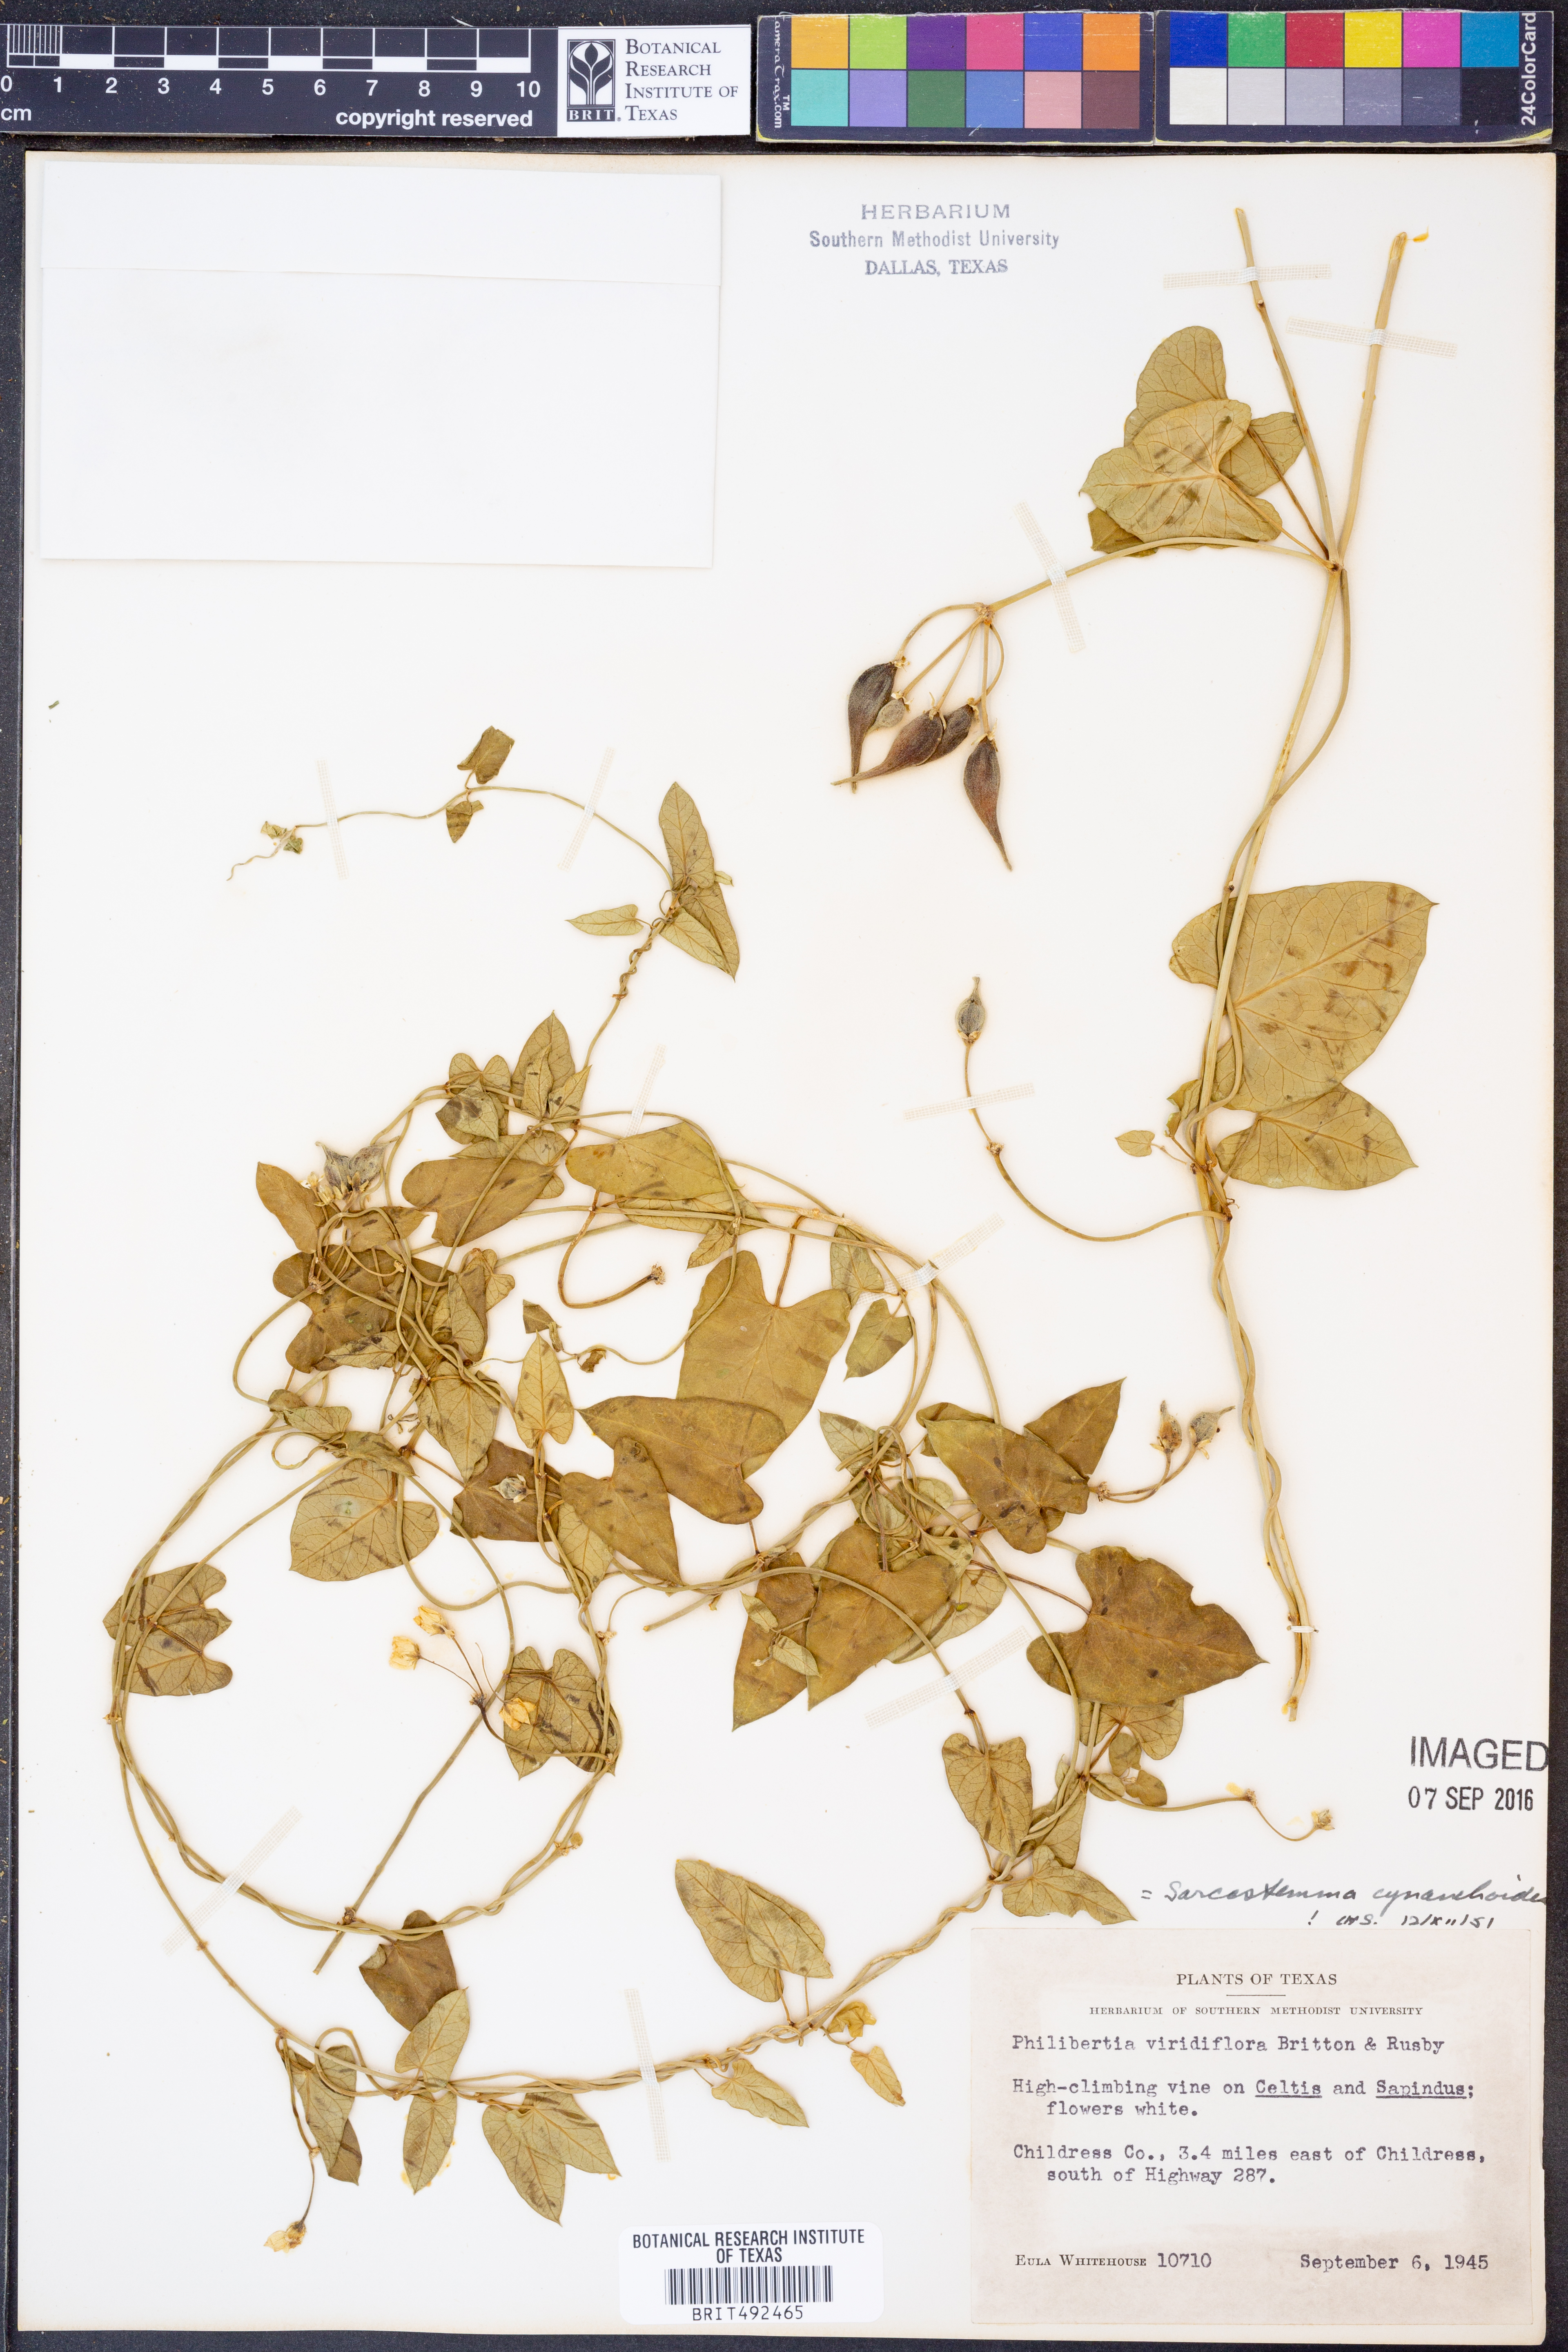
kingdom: Plantae
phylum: Tracheophyta
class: Magnoliopsida
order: Gentianales
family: Apocynaceae
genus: Funastrum
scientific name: Funastrum cynanchoides
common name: Climbing-milkweed
